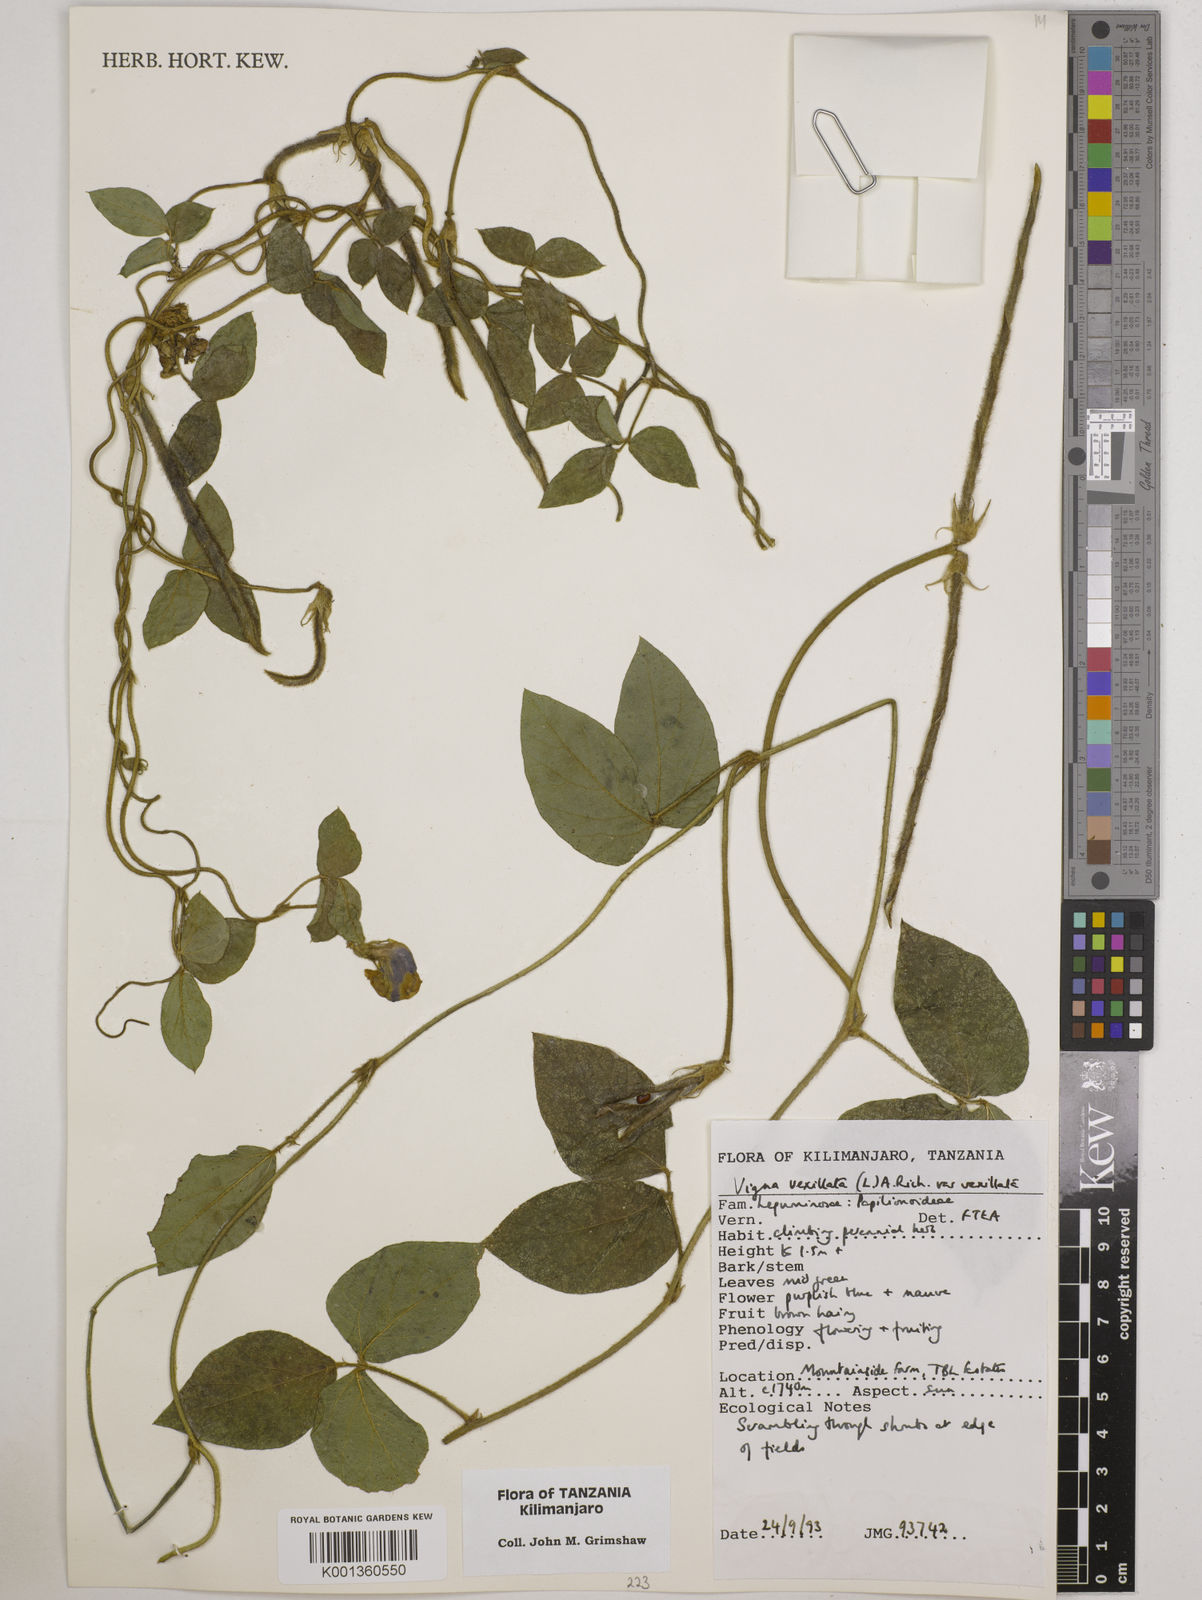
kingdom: Plantae
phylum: Tracheophyta
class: Magnoliopsida
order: Fabales
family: Fabaceae
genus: Vigna
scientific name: Vigna vexillata
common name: Zombi pea
